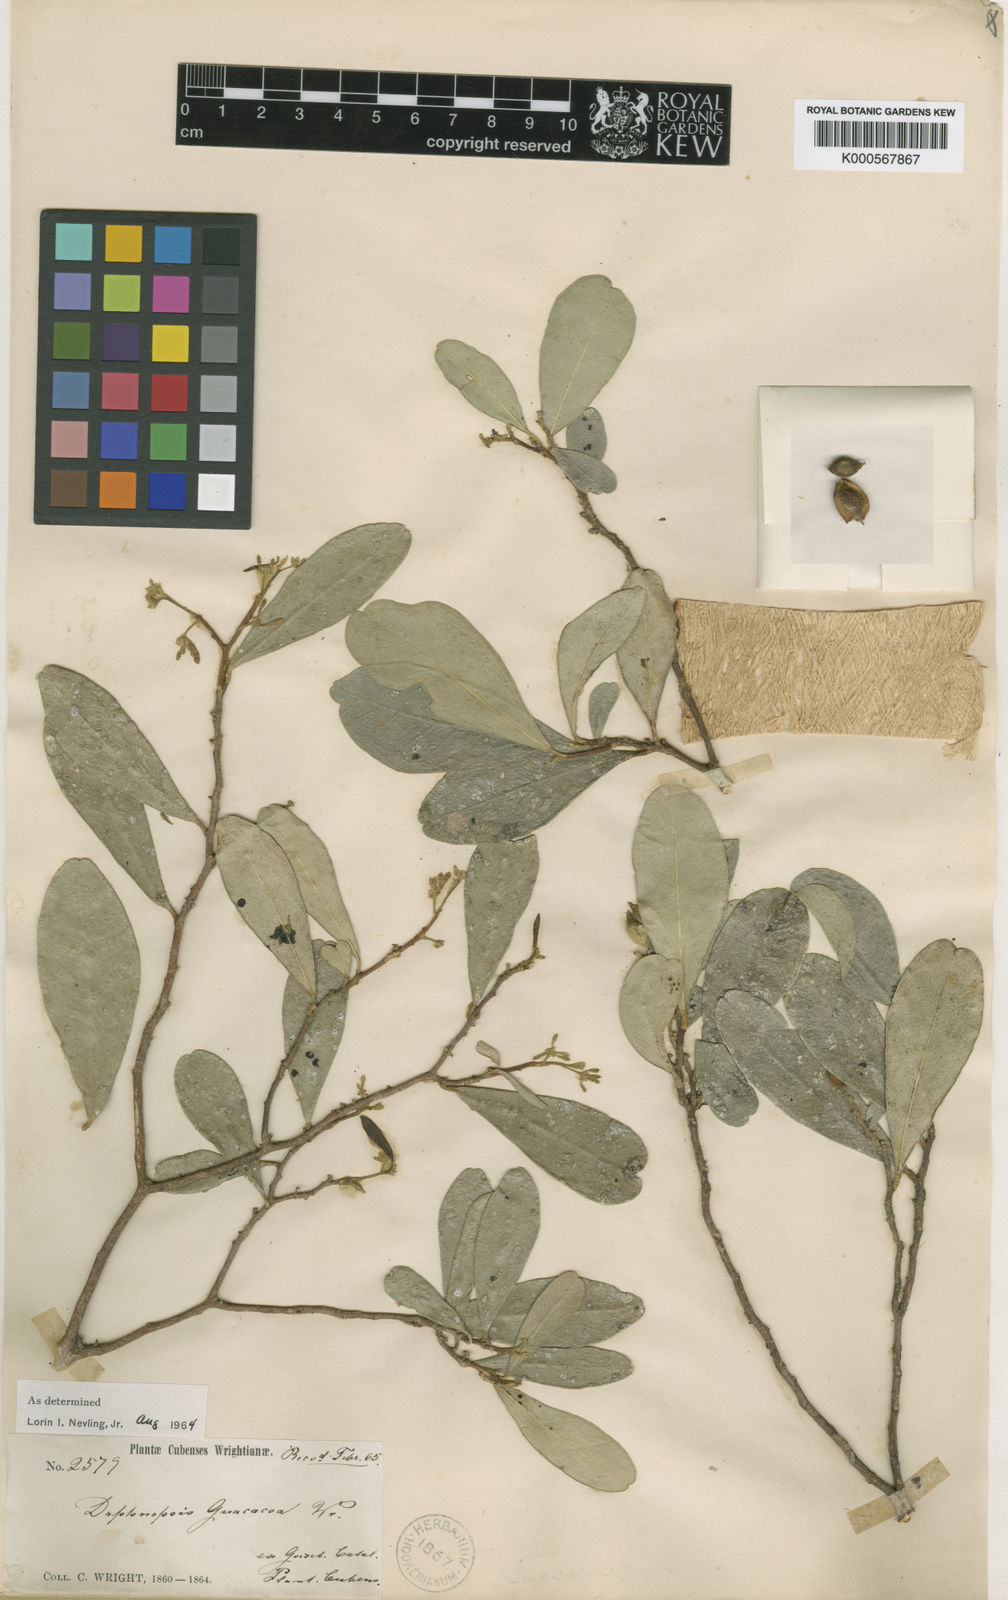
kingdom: Plantae
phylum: Tracheophyta
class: Magnoliopsida
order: Malvales
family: Thymelaeaceae
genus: Daphnopsis
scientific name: Daphnopsis guacacoa
